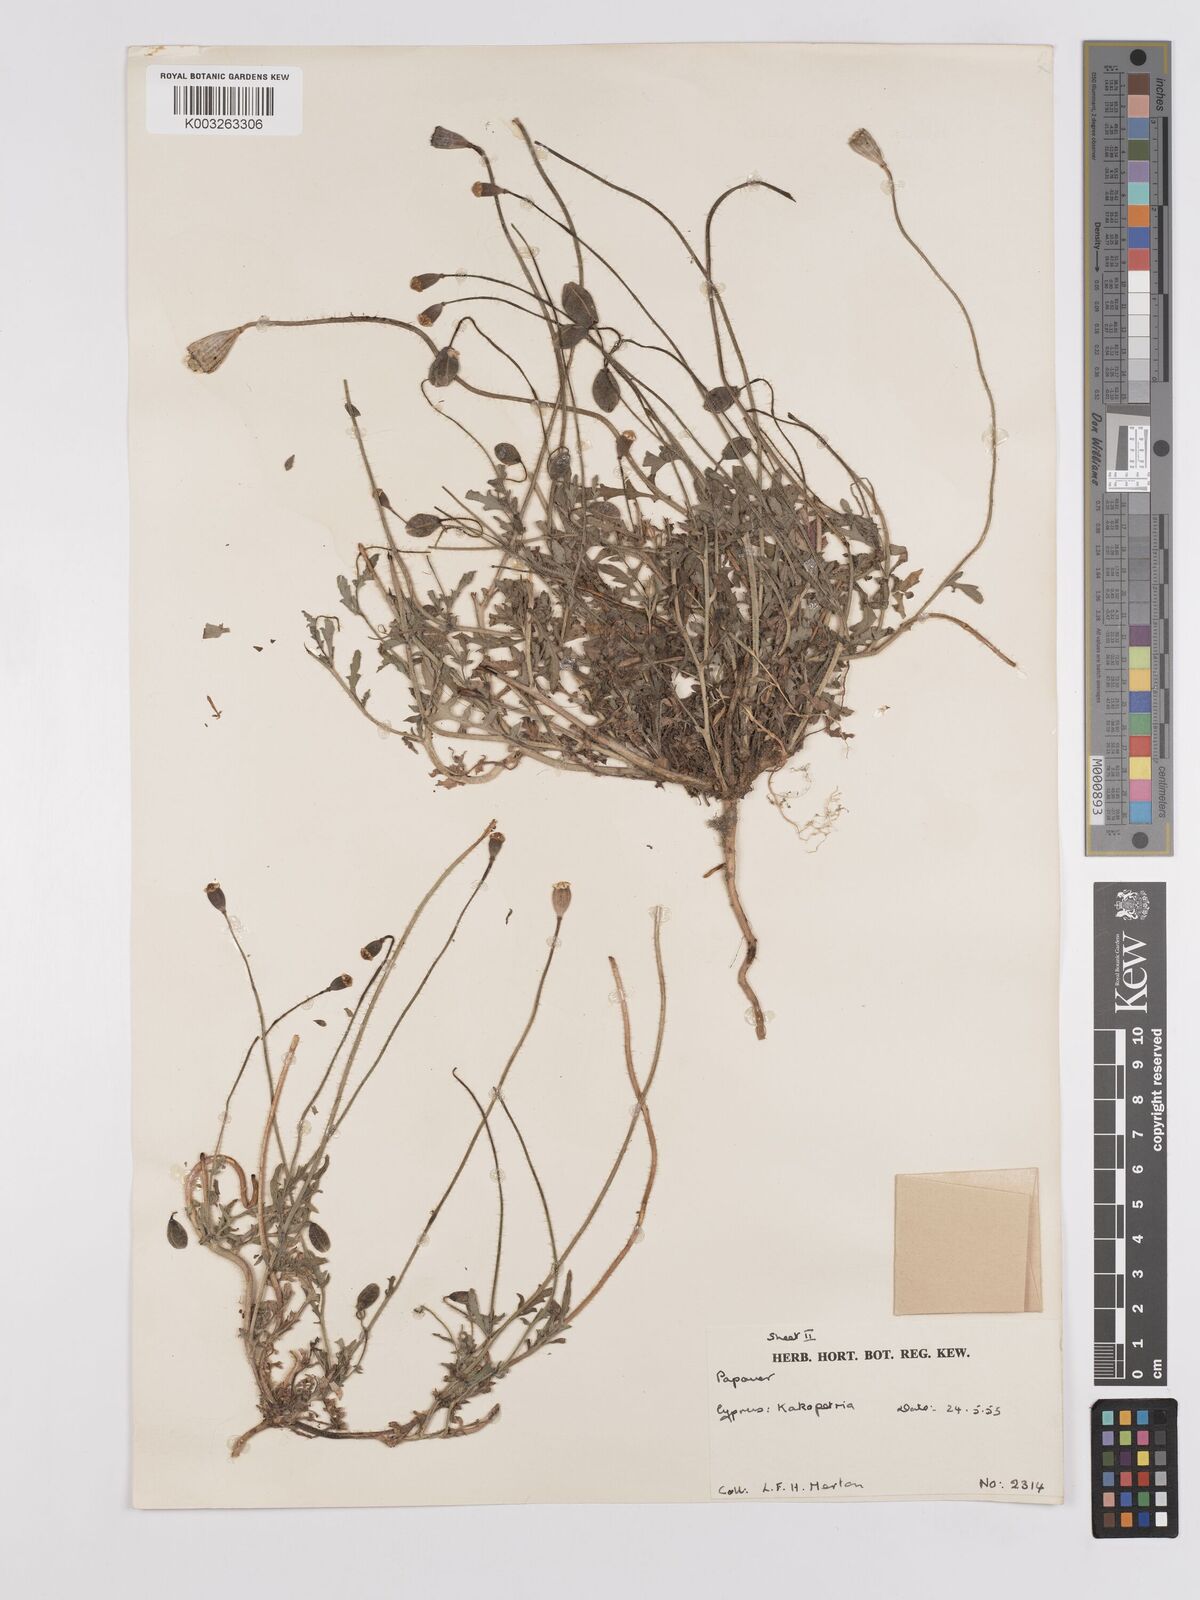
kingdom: Plantae
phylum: Tracheophyta
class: Magnoliopsida
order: Ranunculales
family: Papaveraceae
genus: Papaver
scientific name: Papaver rhoeas
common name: Corn poppy
